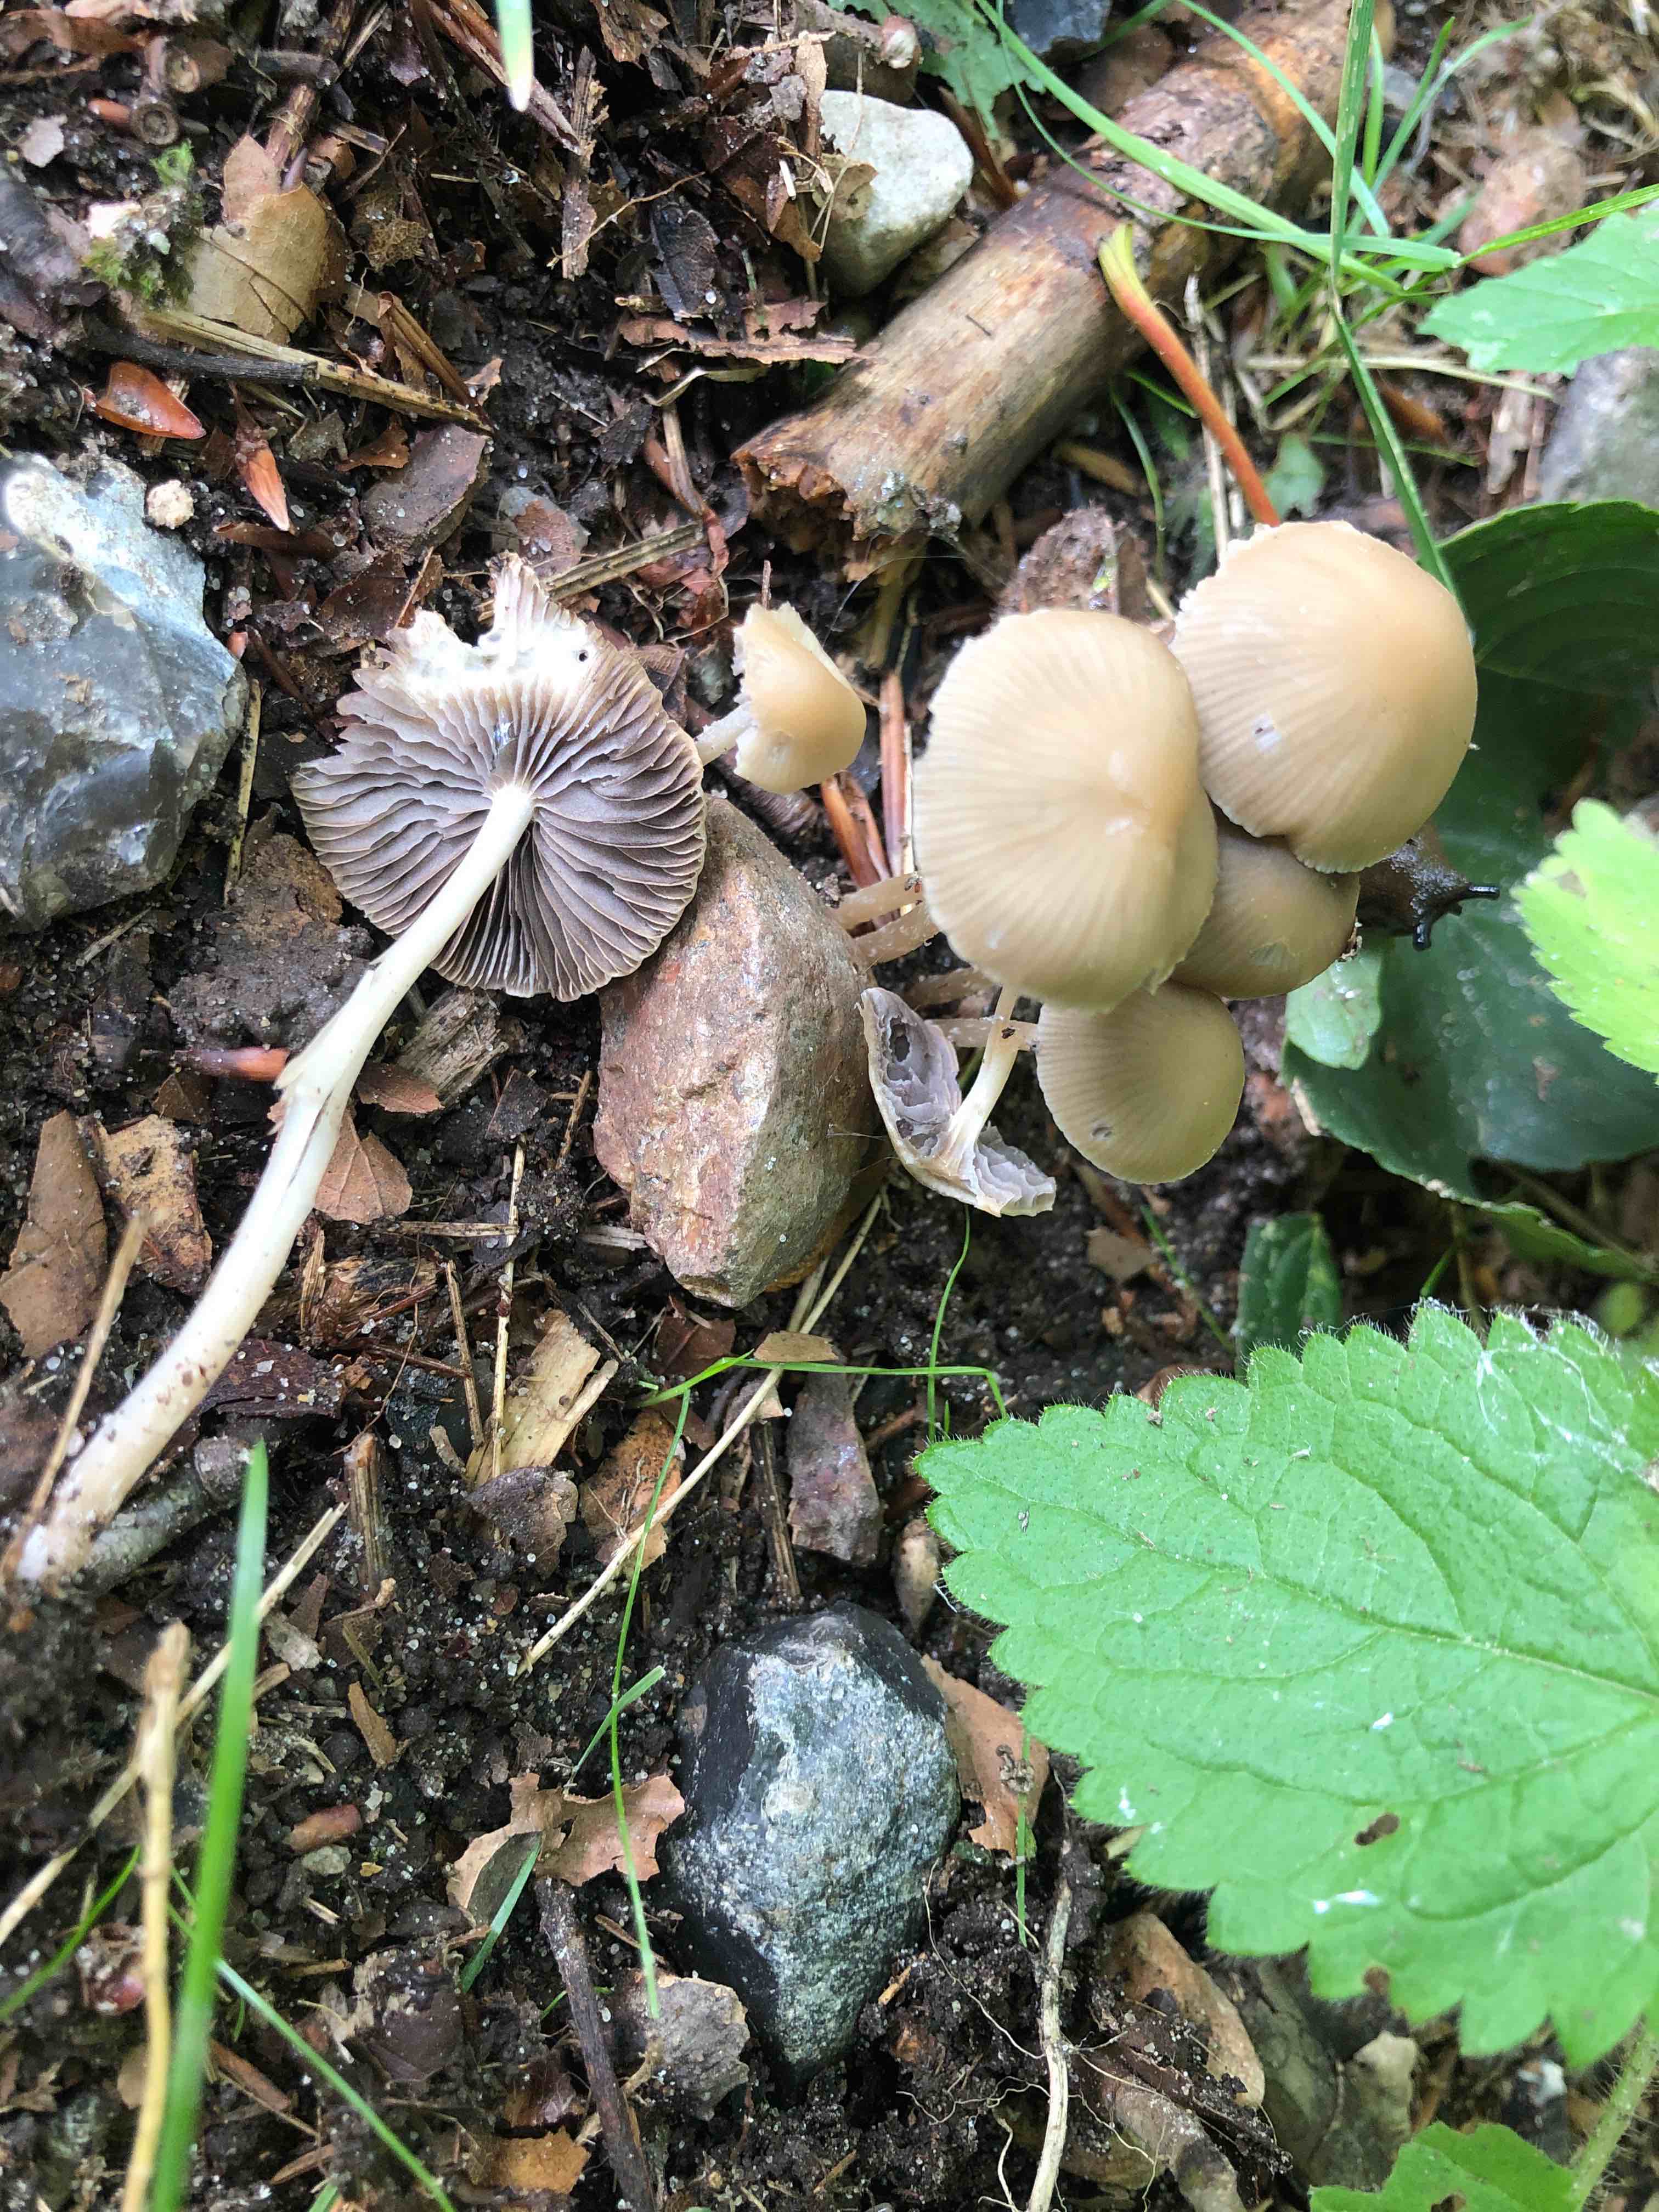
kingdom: Fungi
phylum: Basidiomycota
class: Agaricomycetes
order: Agaricales
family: Psathyrellaceae
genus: Psathyrella
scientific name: Psathyrella pseudogracilis
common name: slank mørkhat
